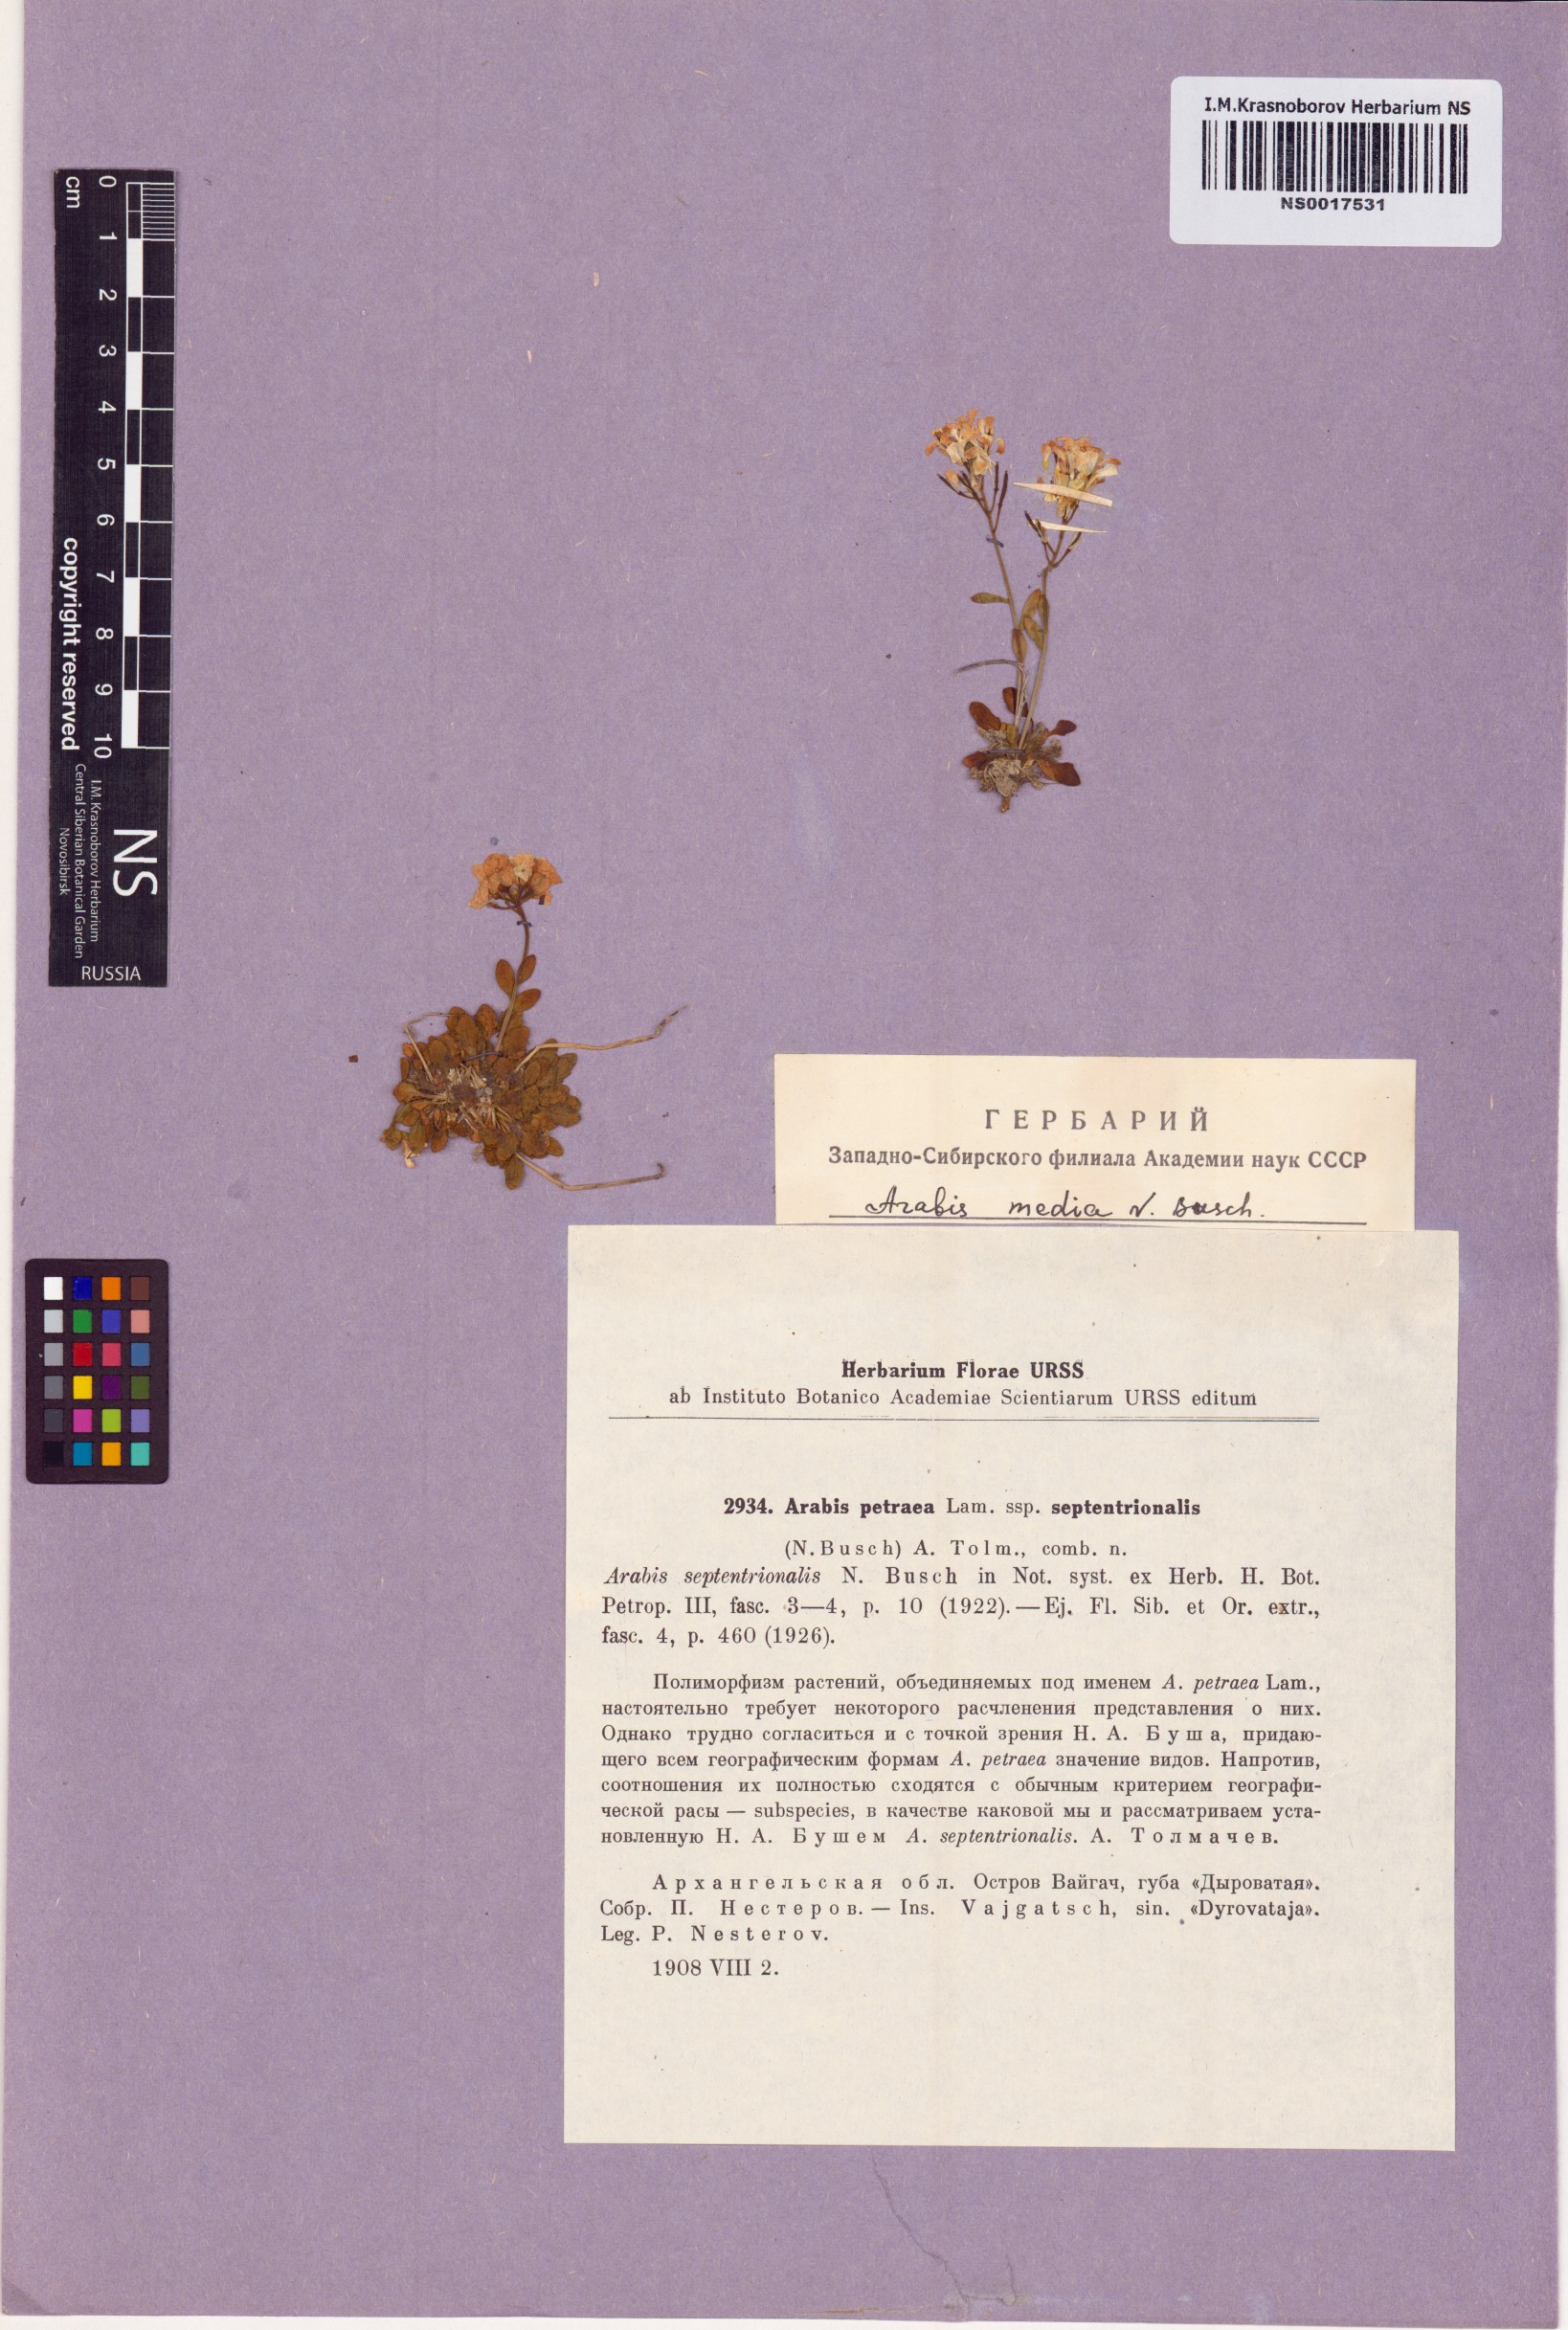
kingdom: Plantae
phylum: Tracheophyta
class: Magnoliopsida
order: Brassicales
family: Brassicaceae
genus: Arabidopsis
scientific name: Arabidopsis lyrata
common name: Lyrate rockcress
